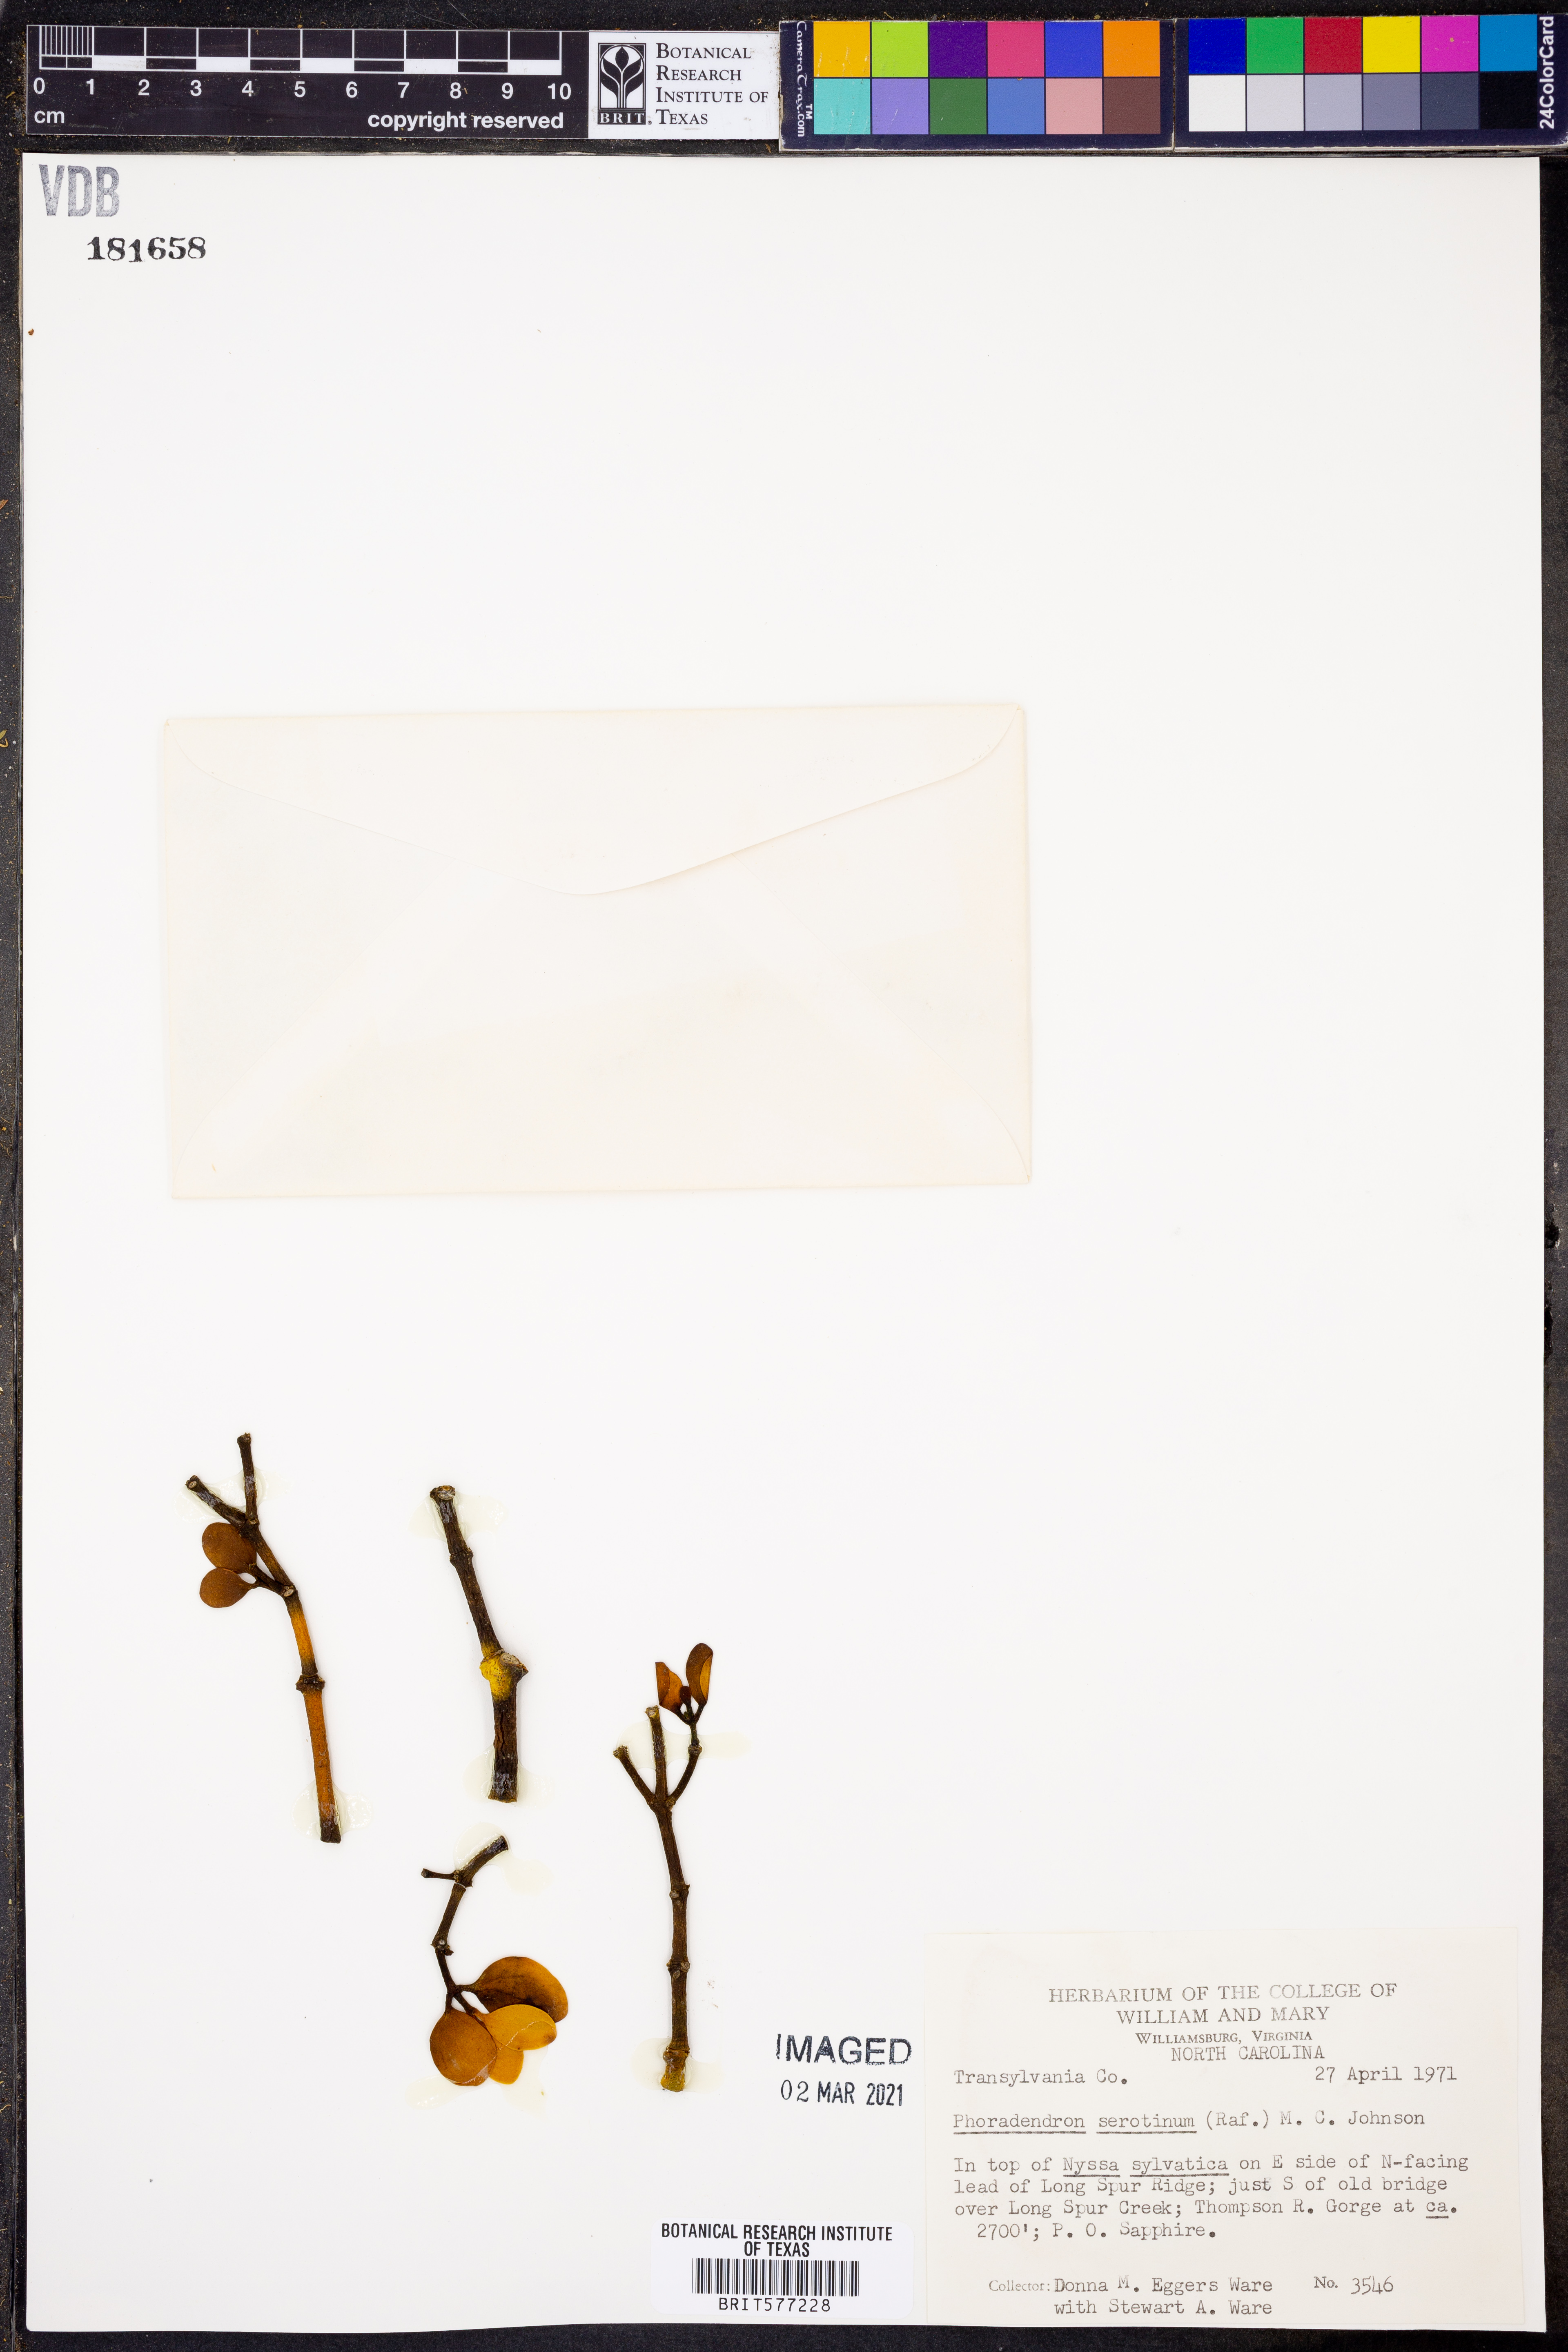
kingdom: Plantae
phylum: Tracheophyta
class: Magnoliopsida
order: Santalales
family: Viscaceae
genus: Phoradendron
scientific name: Phoradendron leucarpum
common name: Pacific mistletoe
